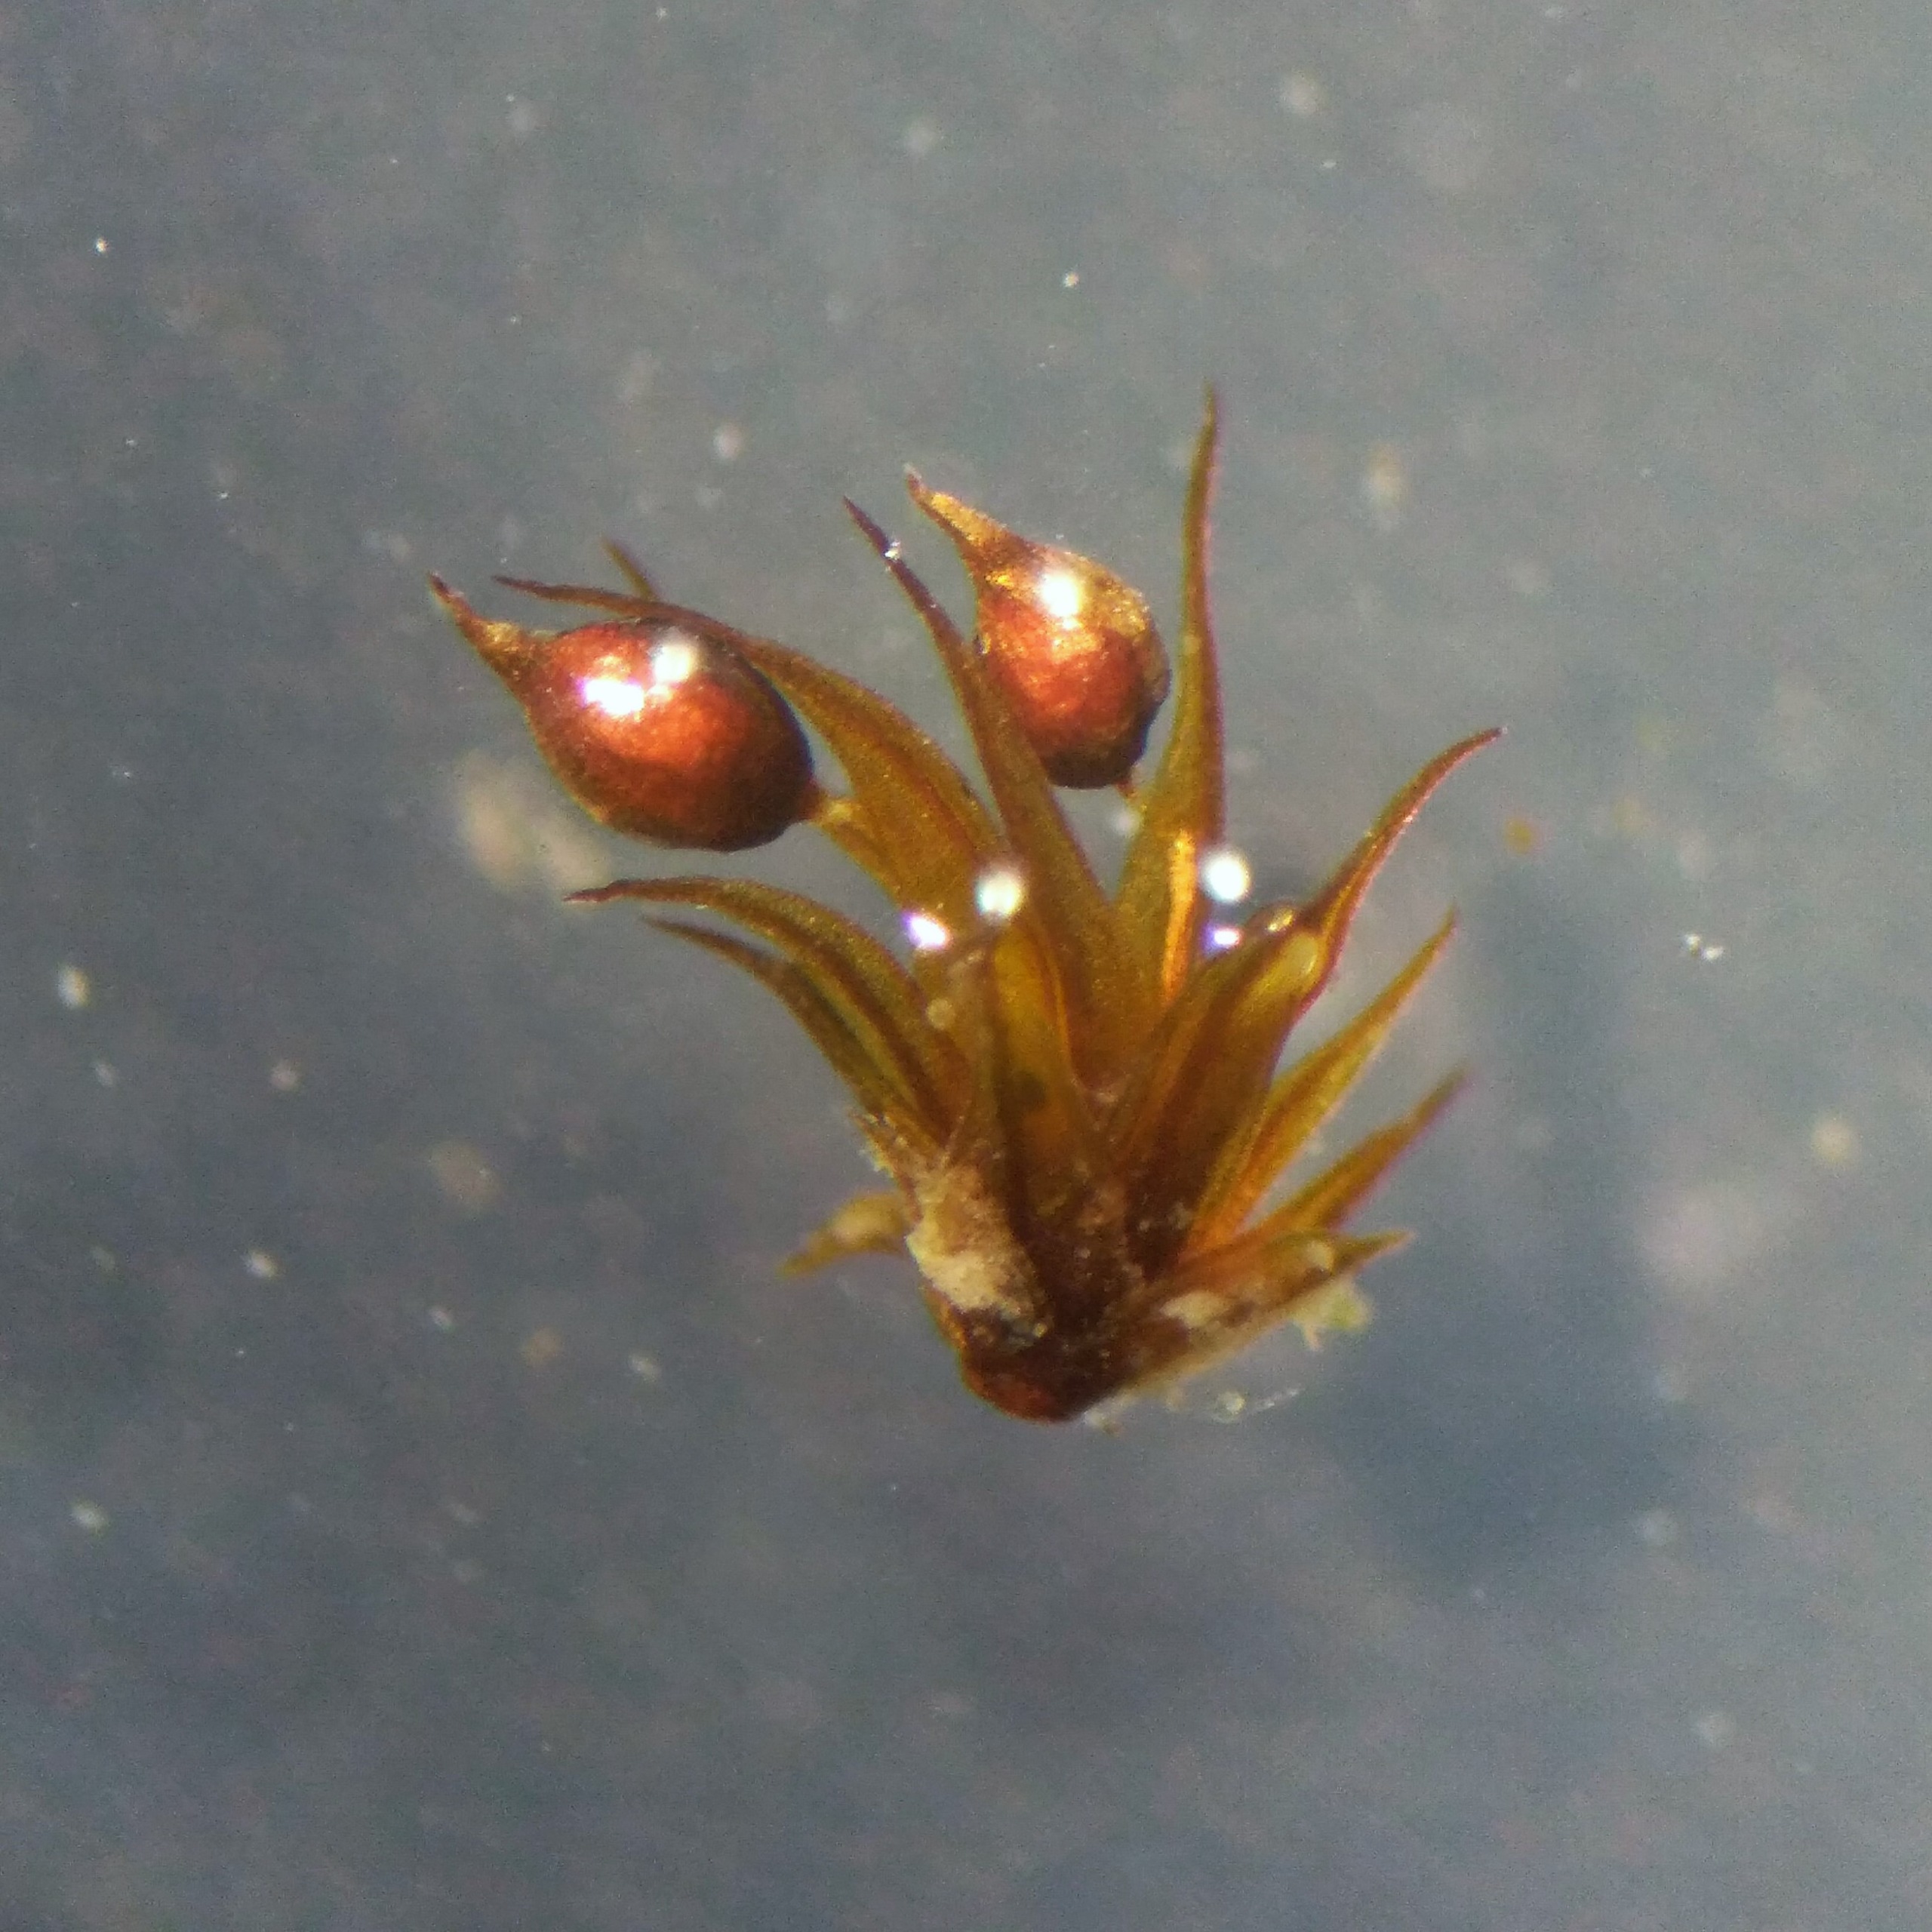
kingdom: Plantae
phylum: Bryophyta
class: Bryopsida
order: Pottiales
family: Pottiaceae
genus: Microbryum
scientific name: Microbryum curvicollum
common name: Bøjet småmos
